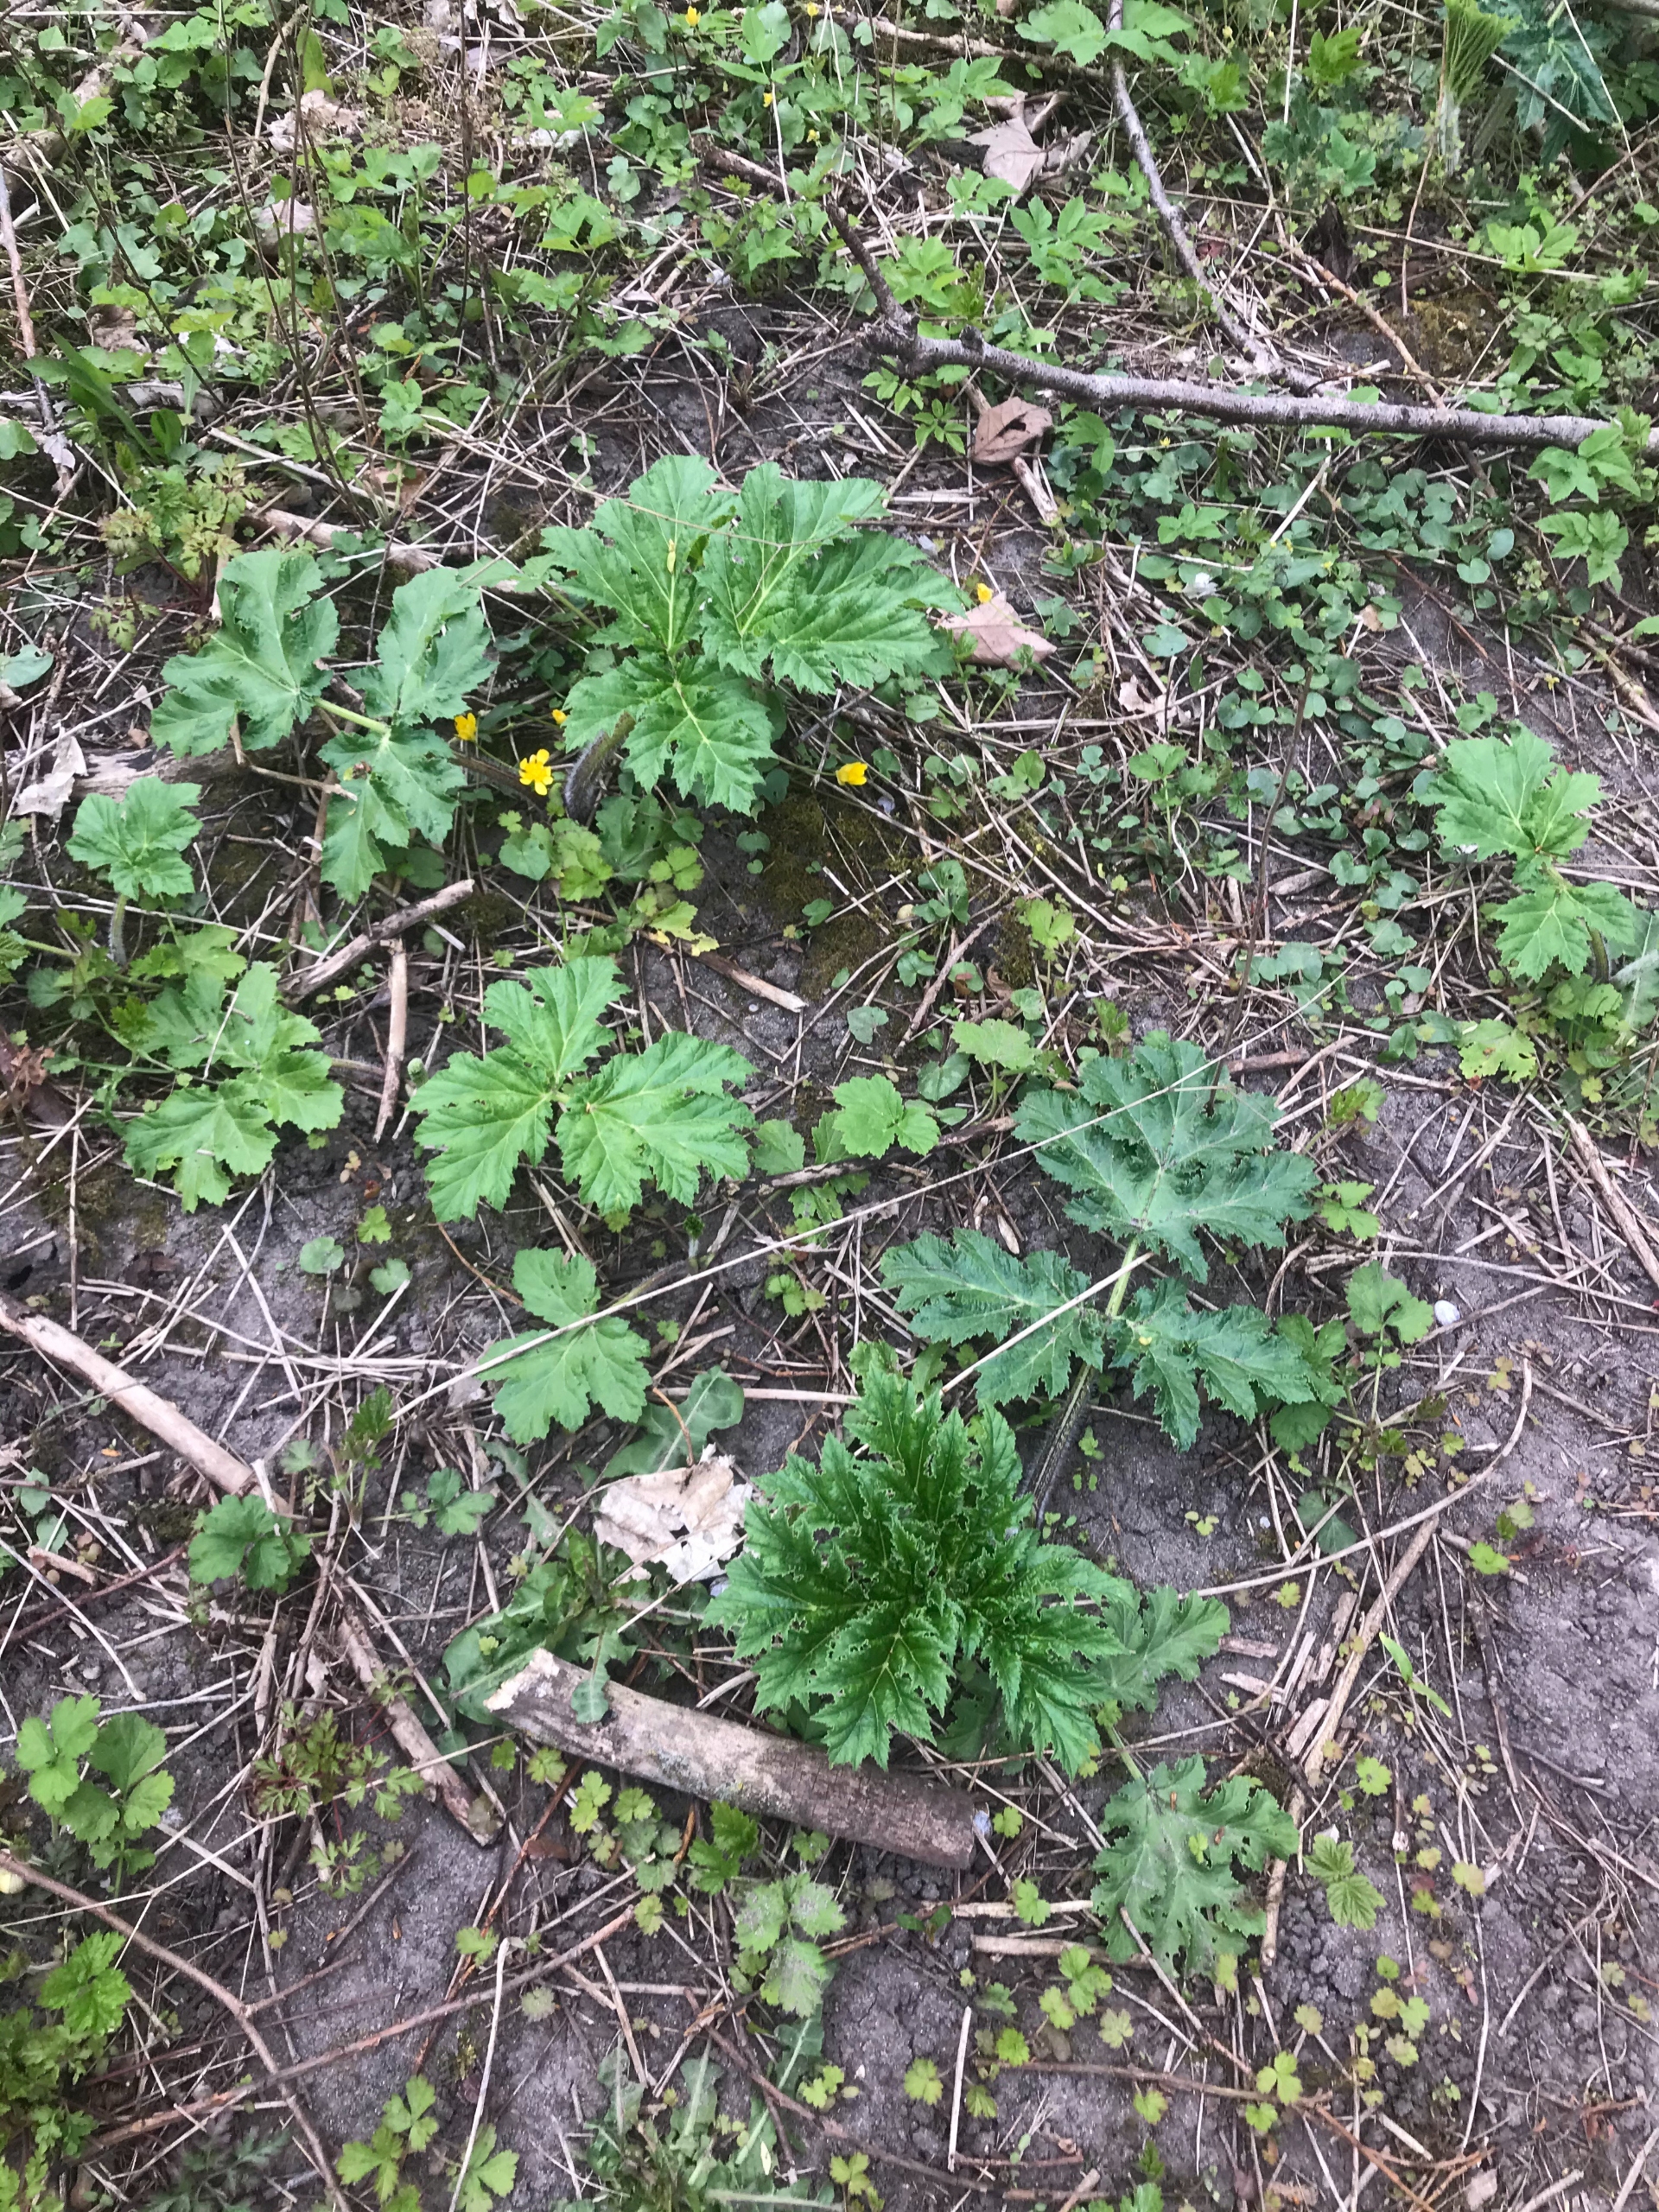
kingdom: Plantae
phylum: Tracheophyta
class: Magnoliopsida
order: Apiales
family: Apiaceae
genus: Heracleum
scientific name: Heracleum mantegazzianum
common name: Kæmpe-bjørneklo
